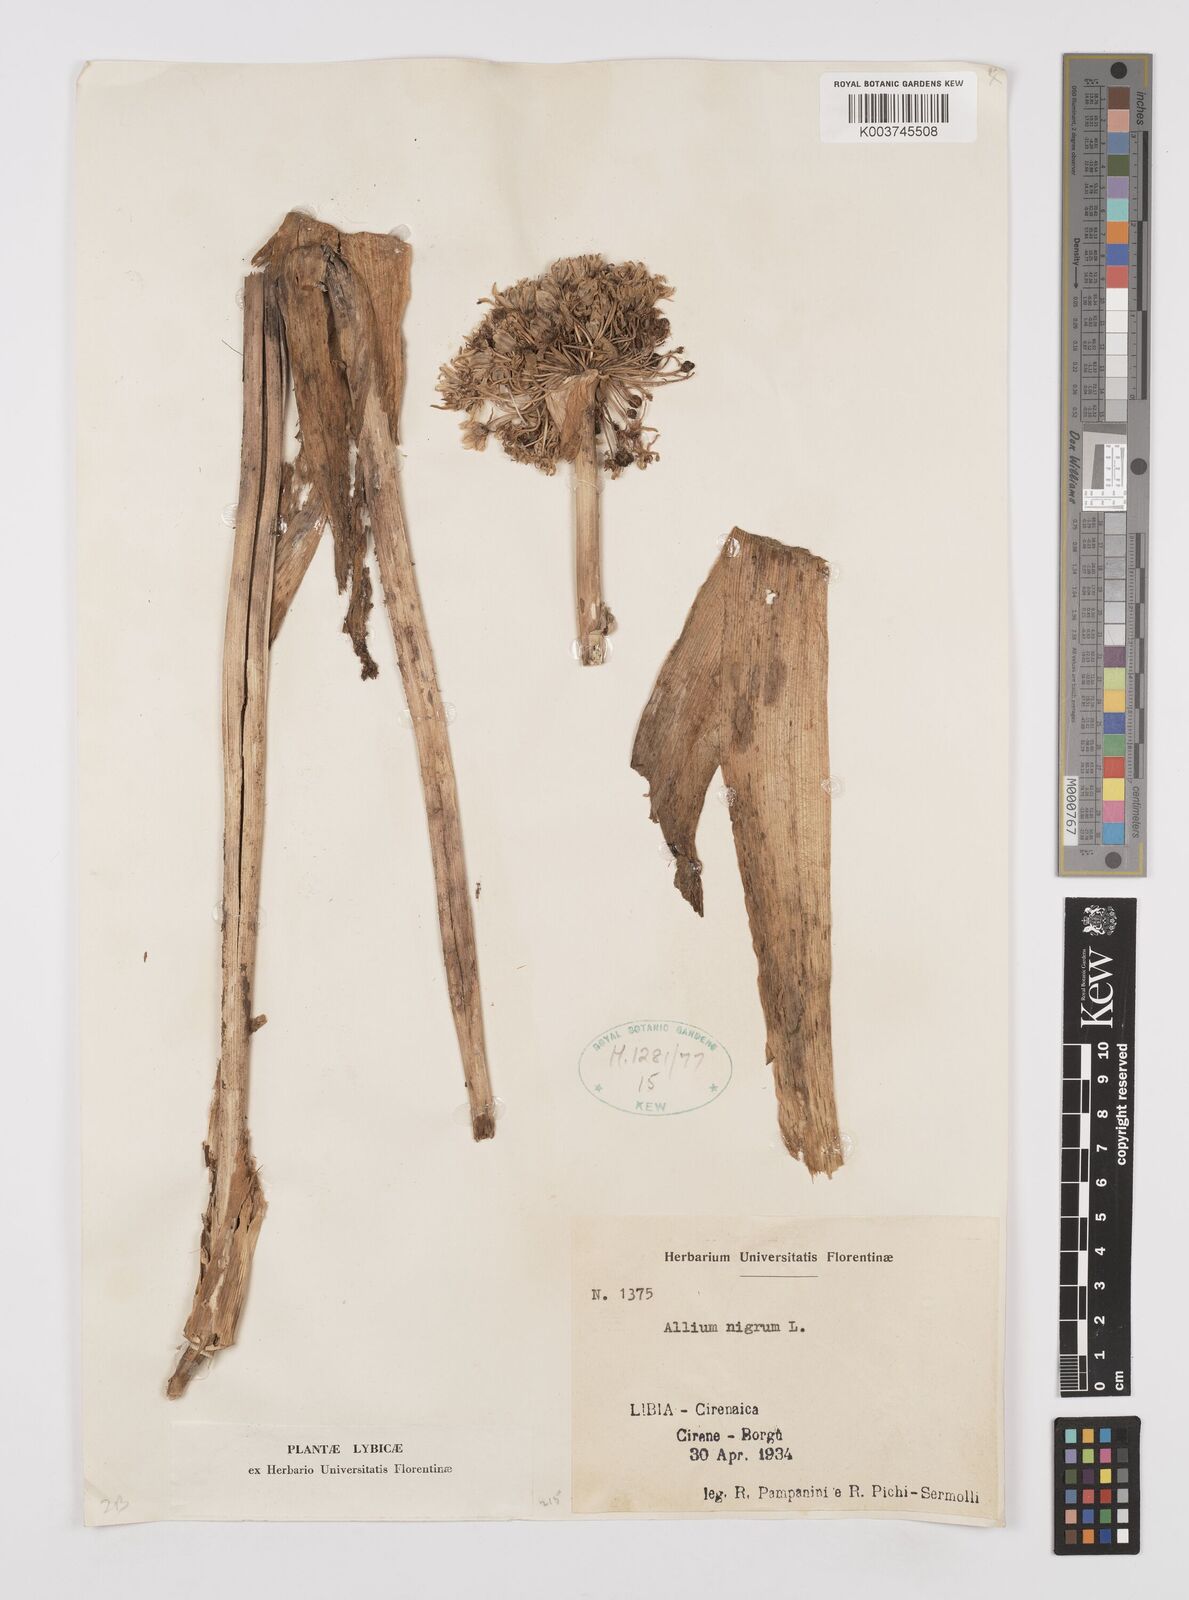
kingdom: Plantae
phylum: Tracheophyta
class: Liliopsida
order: Asparagales
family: Amaryllidaceae
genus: Allium
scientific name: Allium nigrum
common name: Black garlic
